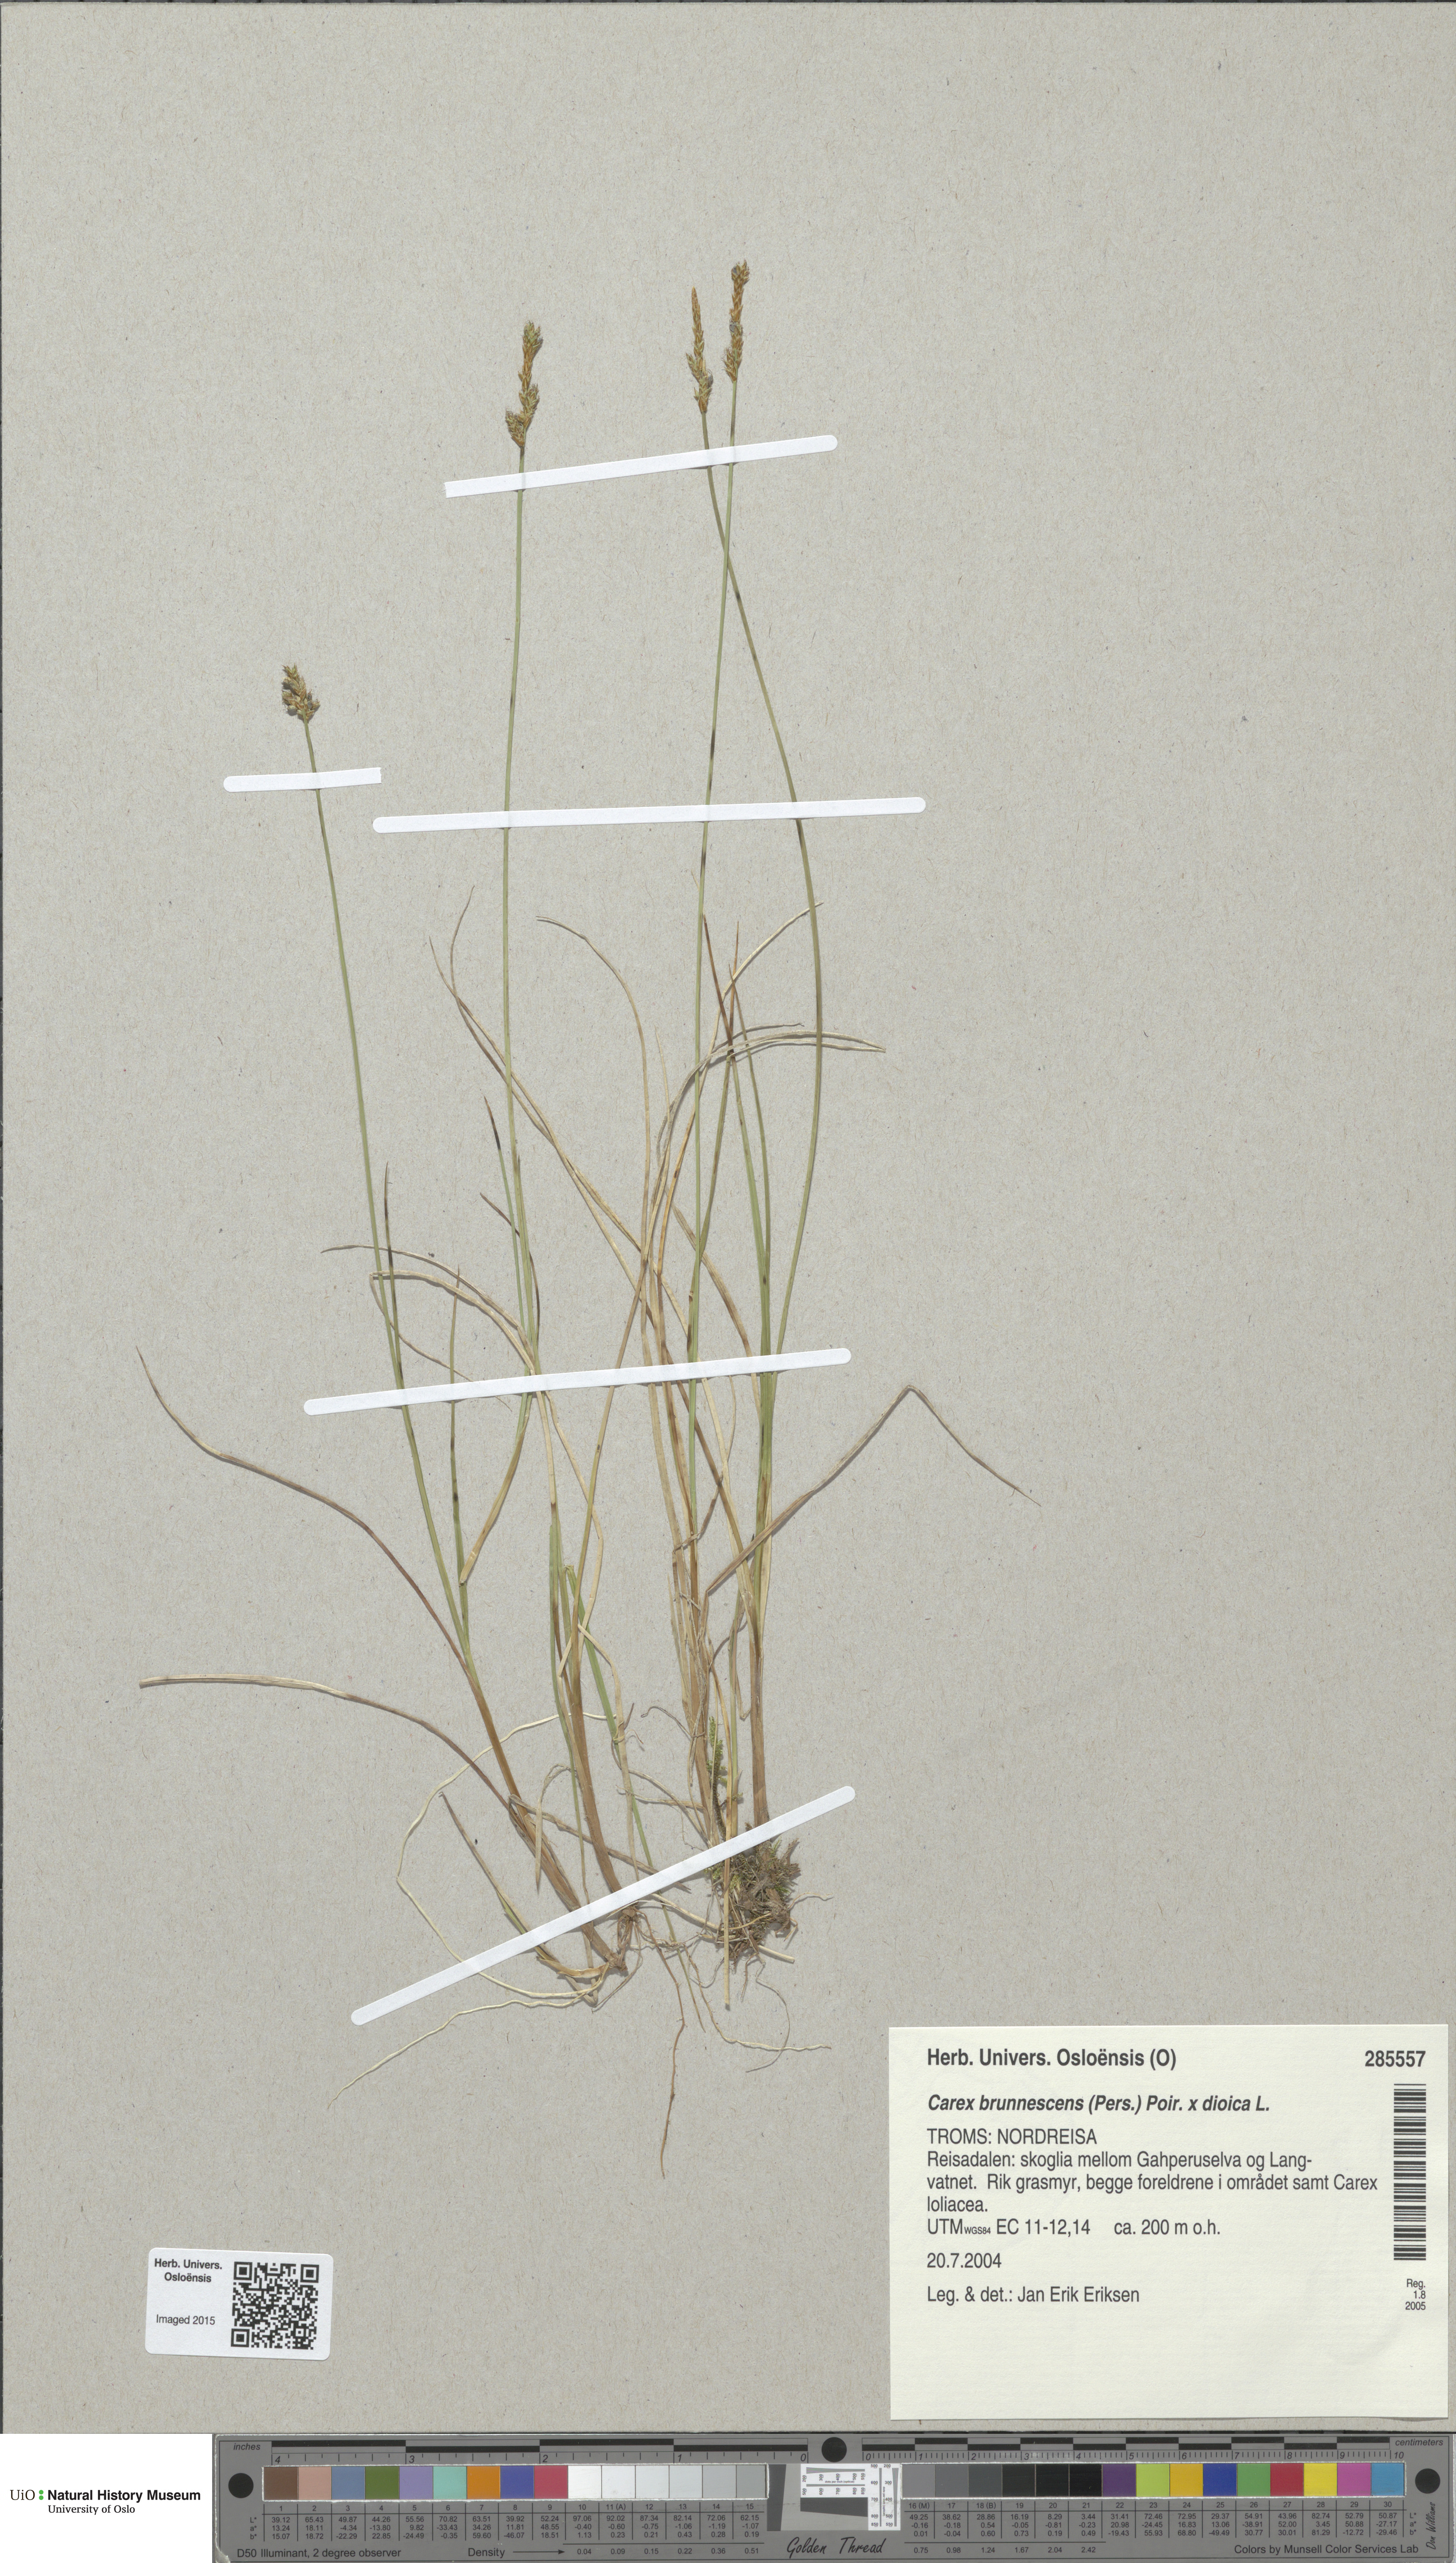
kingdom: Plantae
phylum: Tracheophyta
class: Liliopsida
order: Poales
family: Cyperaceae
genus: Carex
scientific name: Carex
